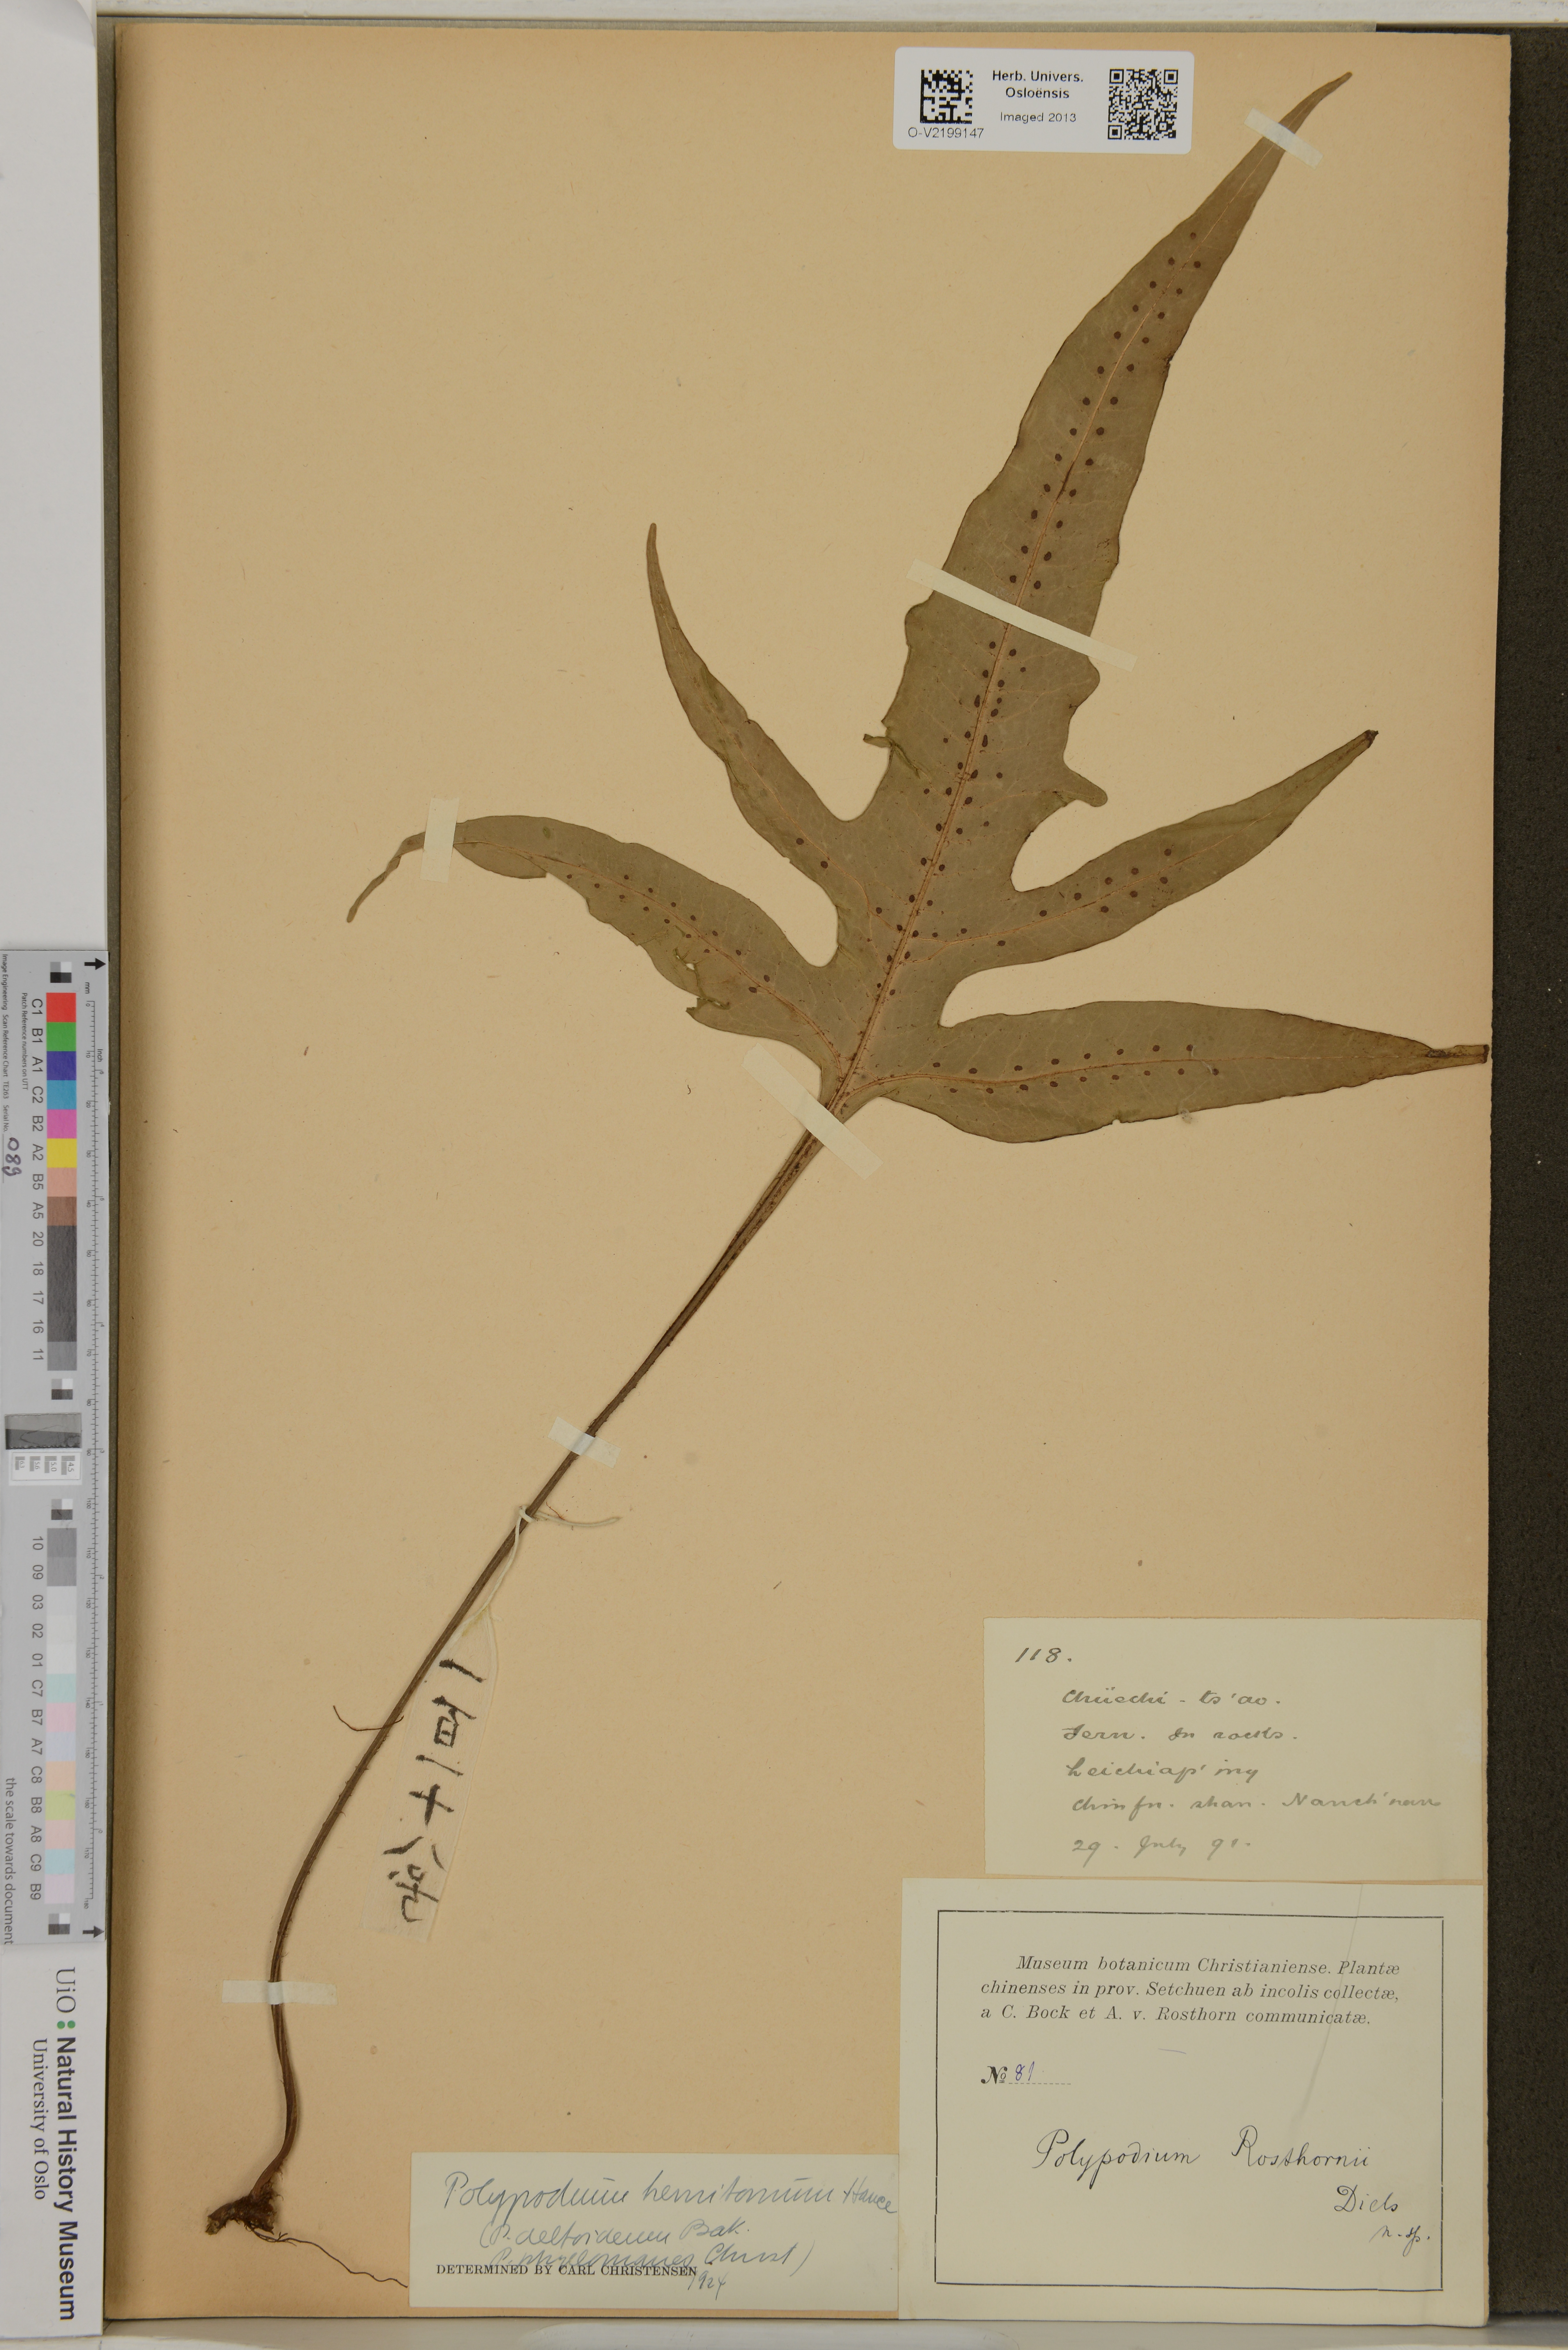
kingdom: Plantae
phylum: Tracheophyta
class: Polypodiopsida
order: Polypodiales
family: Polypodiaceae
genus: Leptochilus
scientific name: Leptochilus pedunculatus
